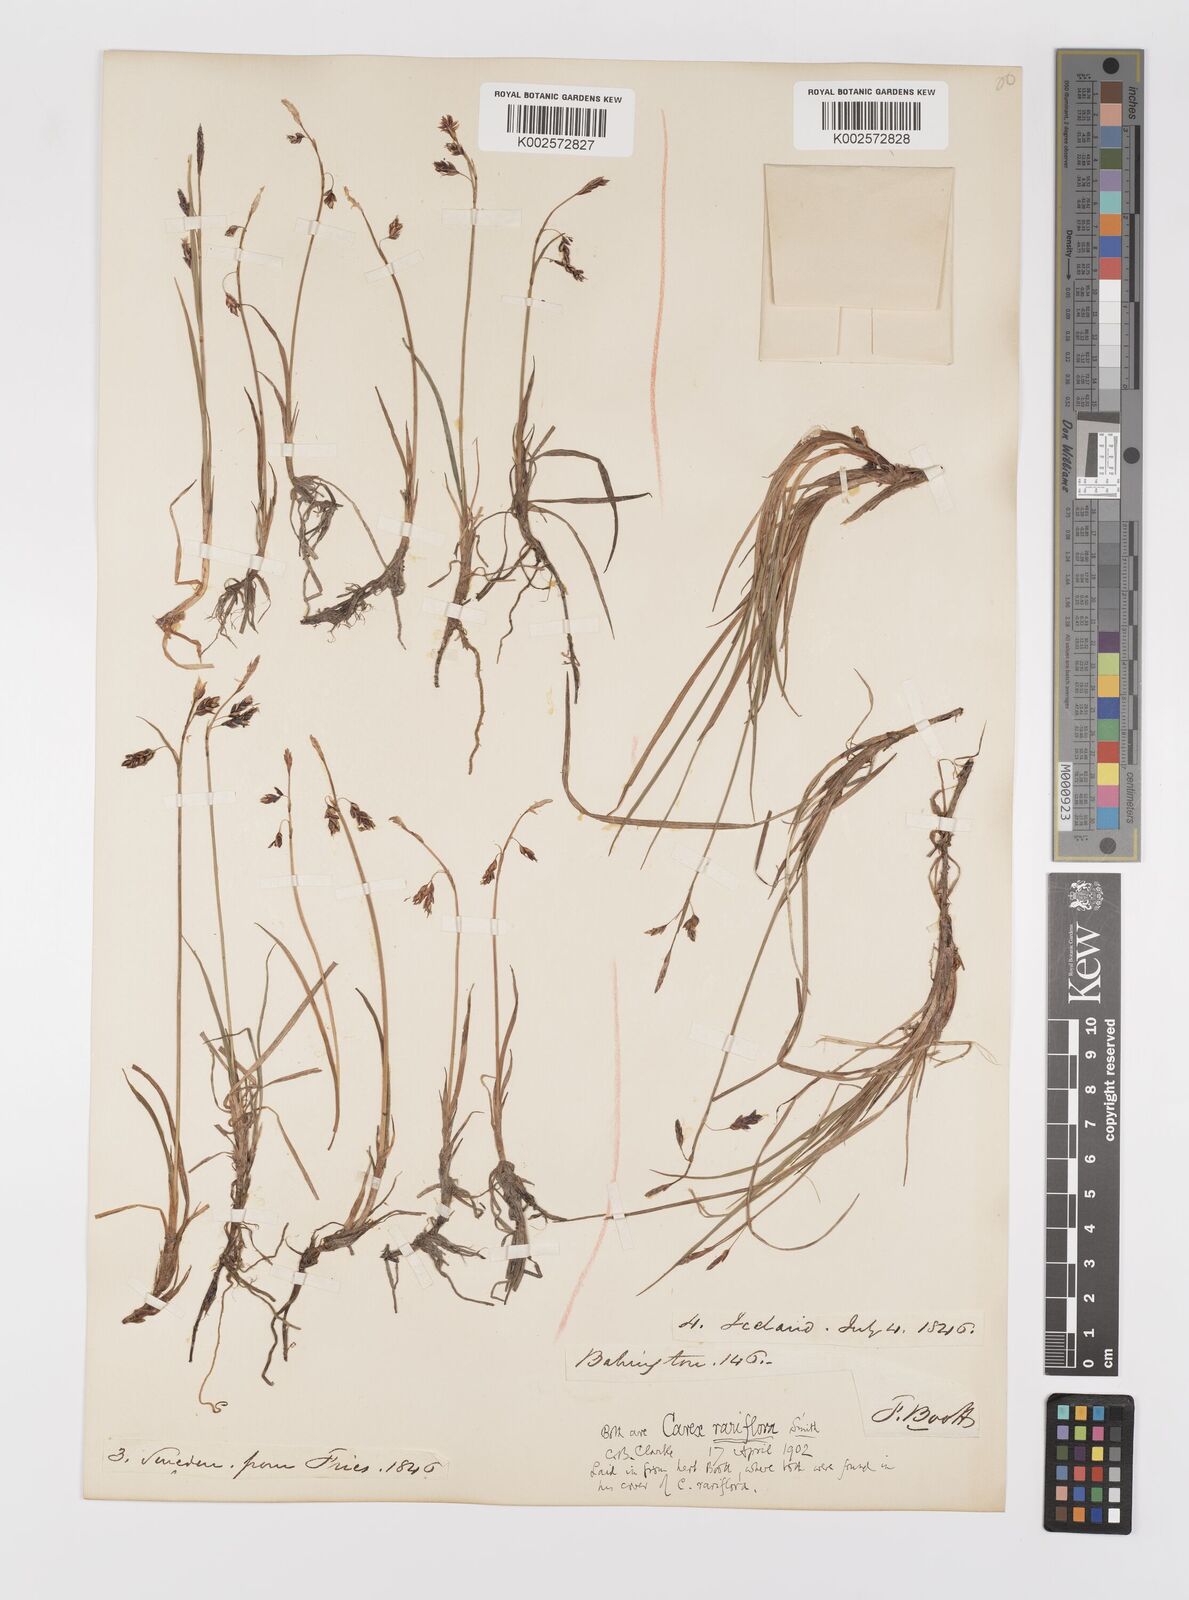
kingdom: Plantae
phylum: Tracheophyta
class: Liliopsida
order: Poales
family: Cyperaceae
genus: Carex
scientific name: Carex rariflora
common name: Loose-flowered alpine sedge
